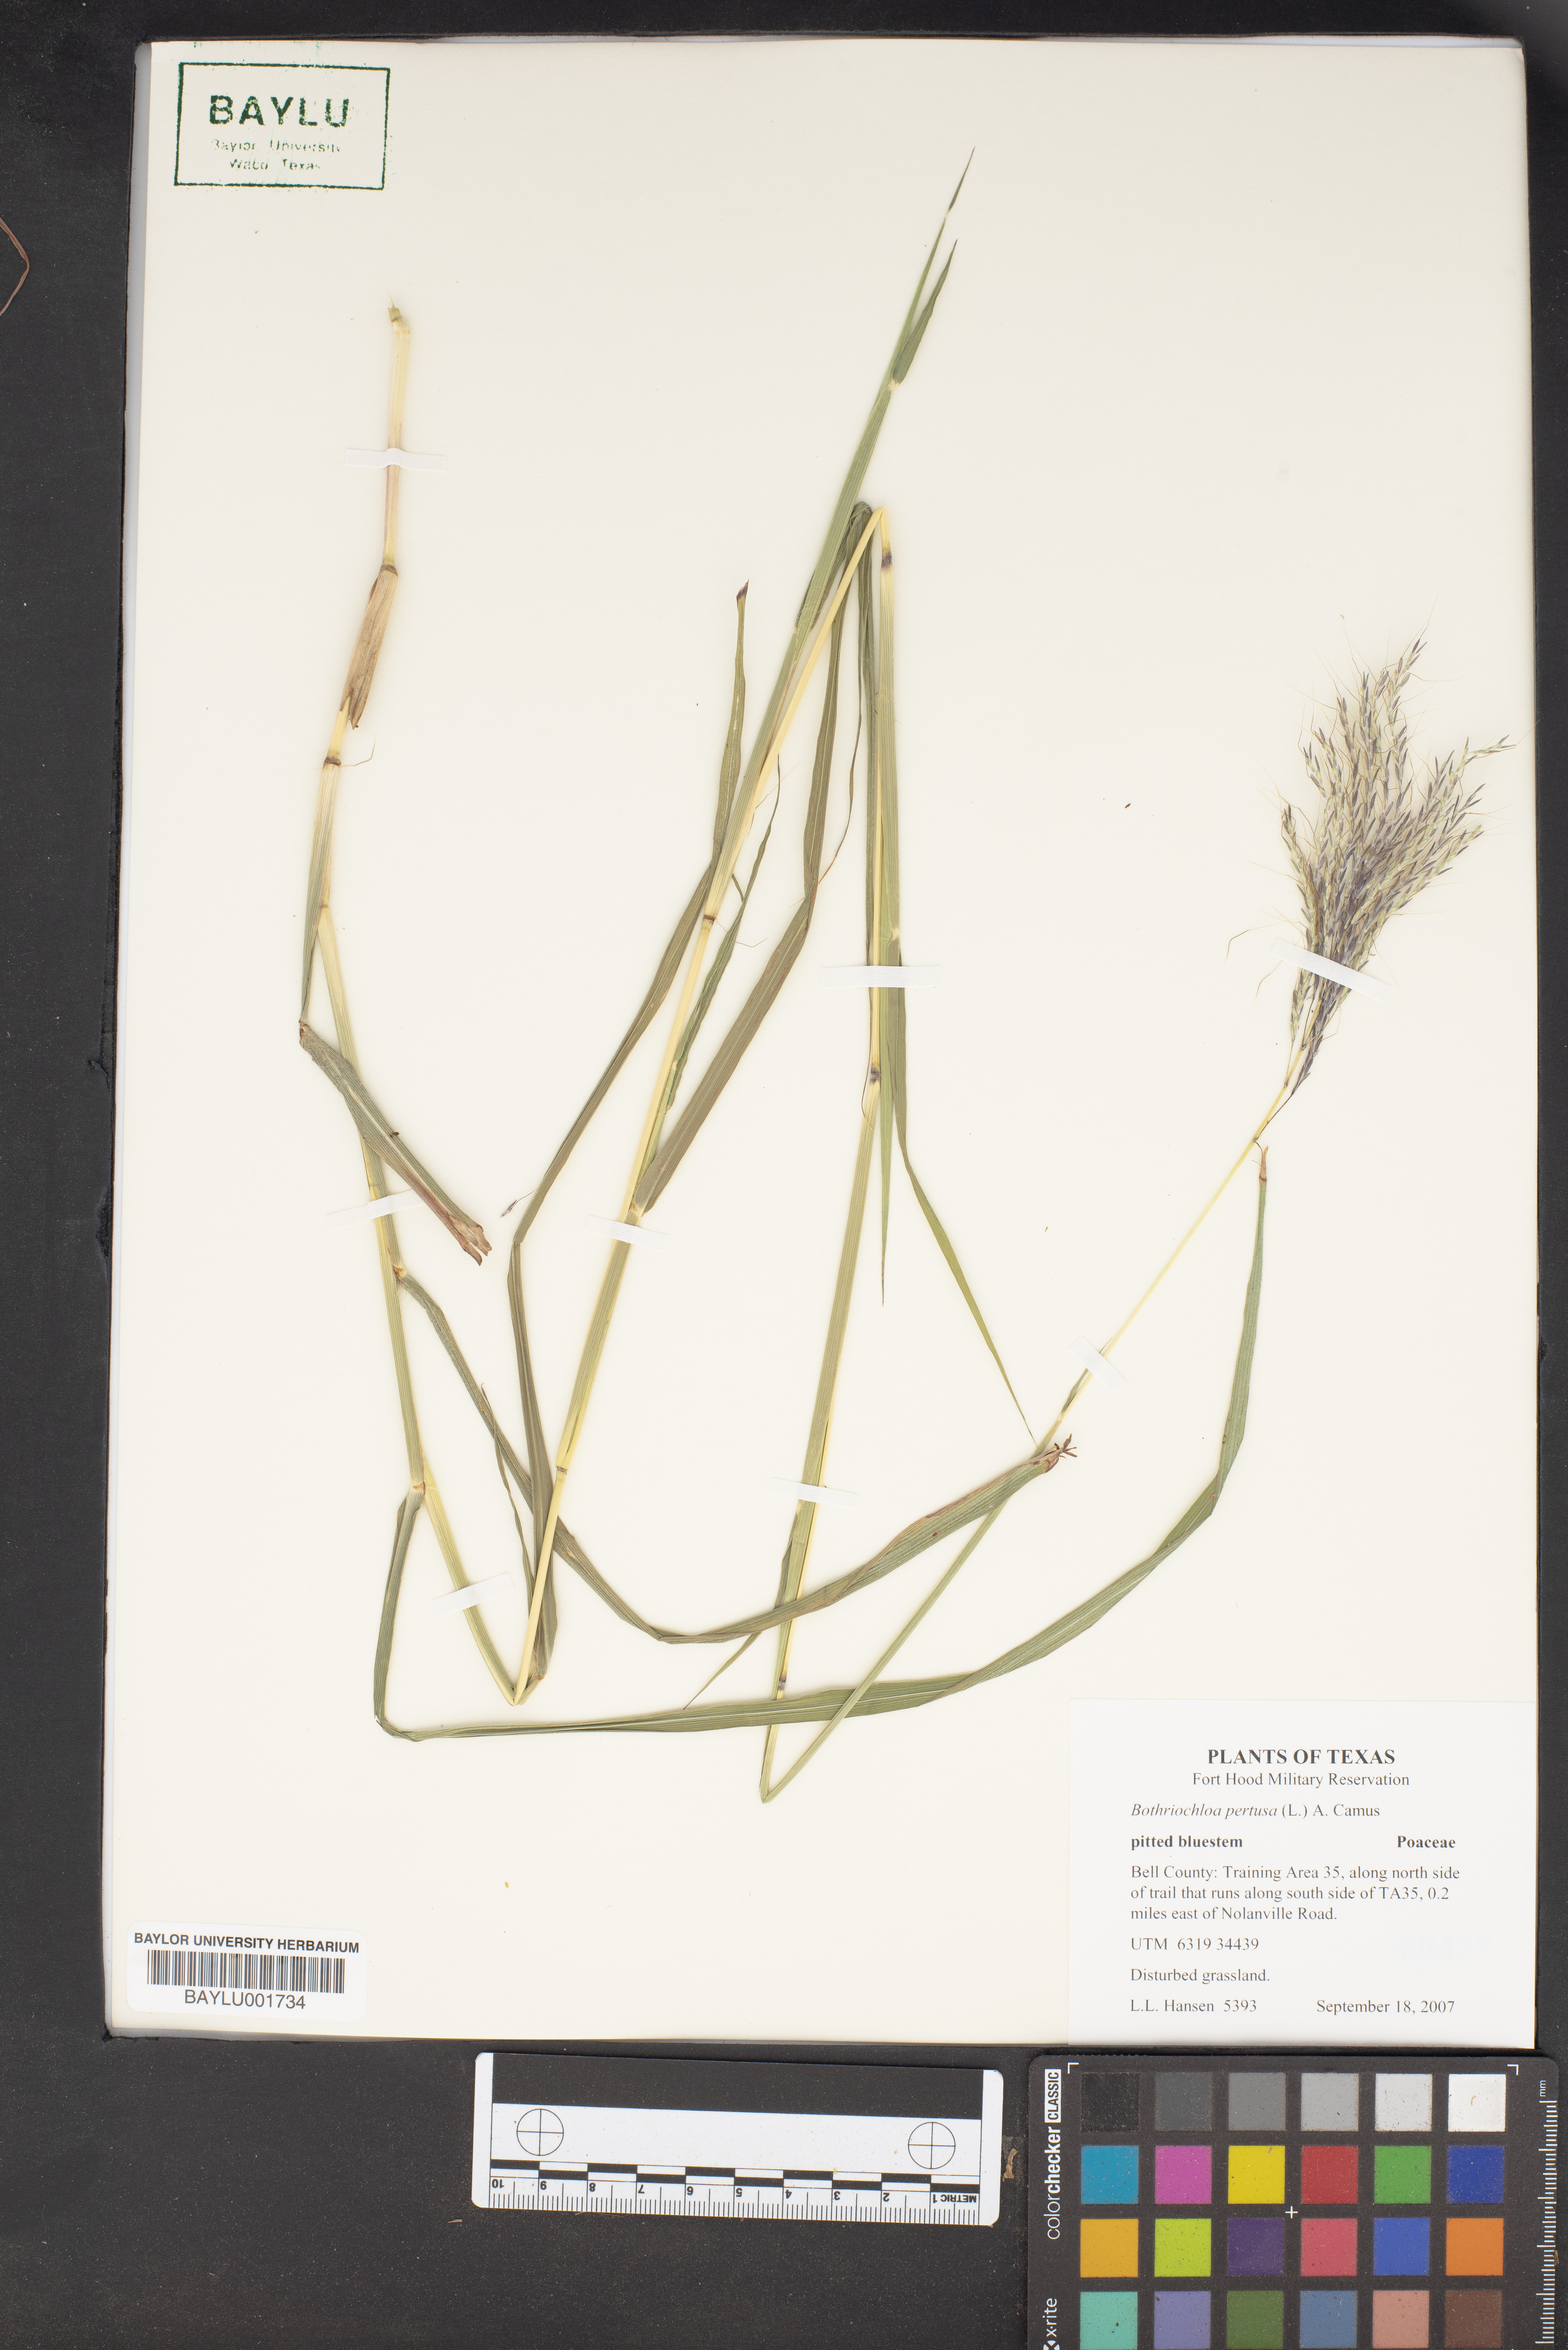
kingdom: Plantae
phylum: Tracheophyta
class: Liliopsida
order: Poales
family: Poaceae
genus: Bothriochloa
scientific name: Bothriochloa pertusa
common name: Pitted beardgrass
